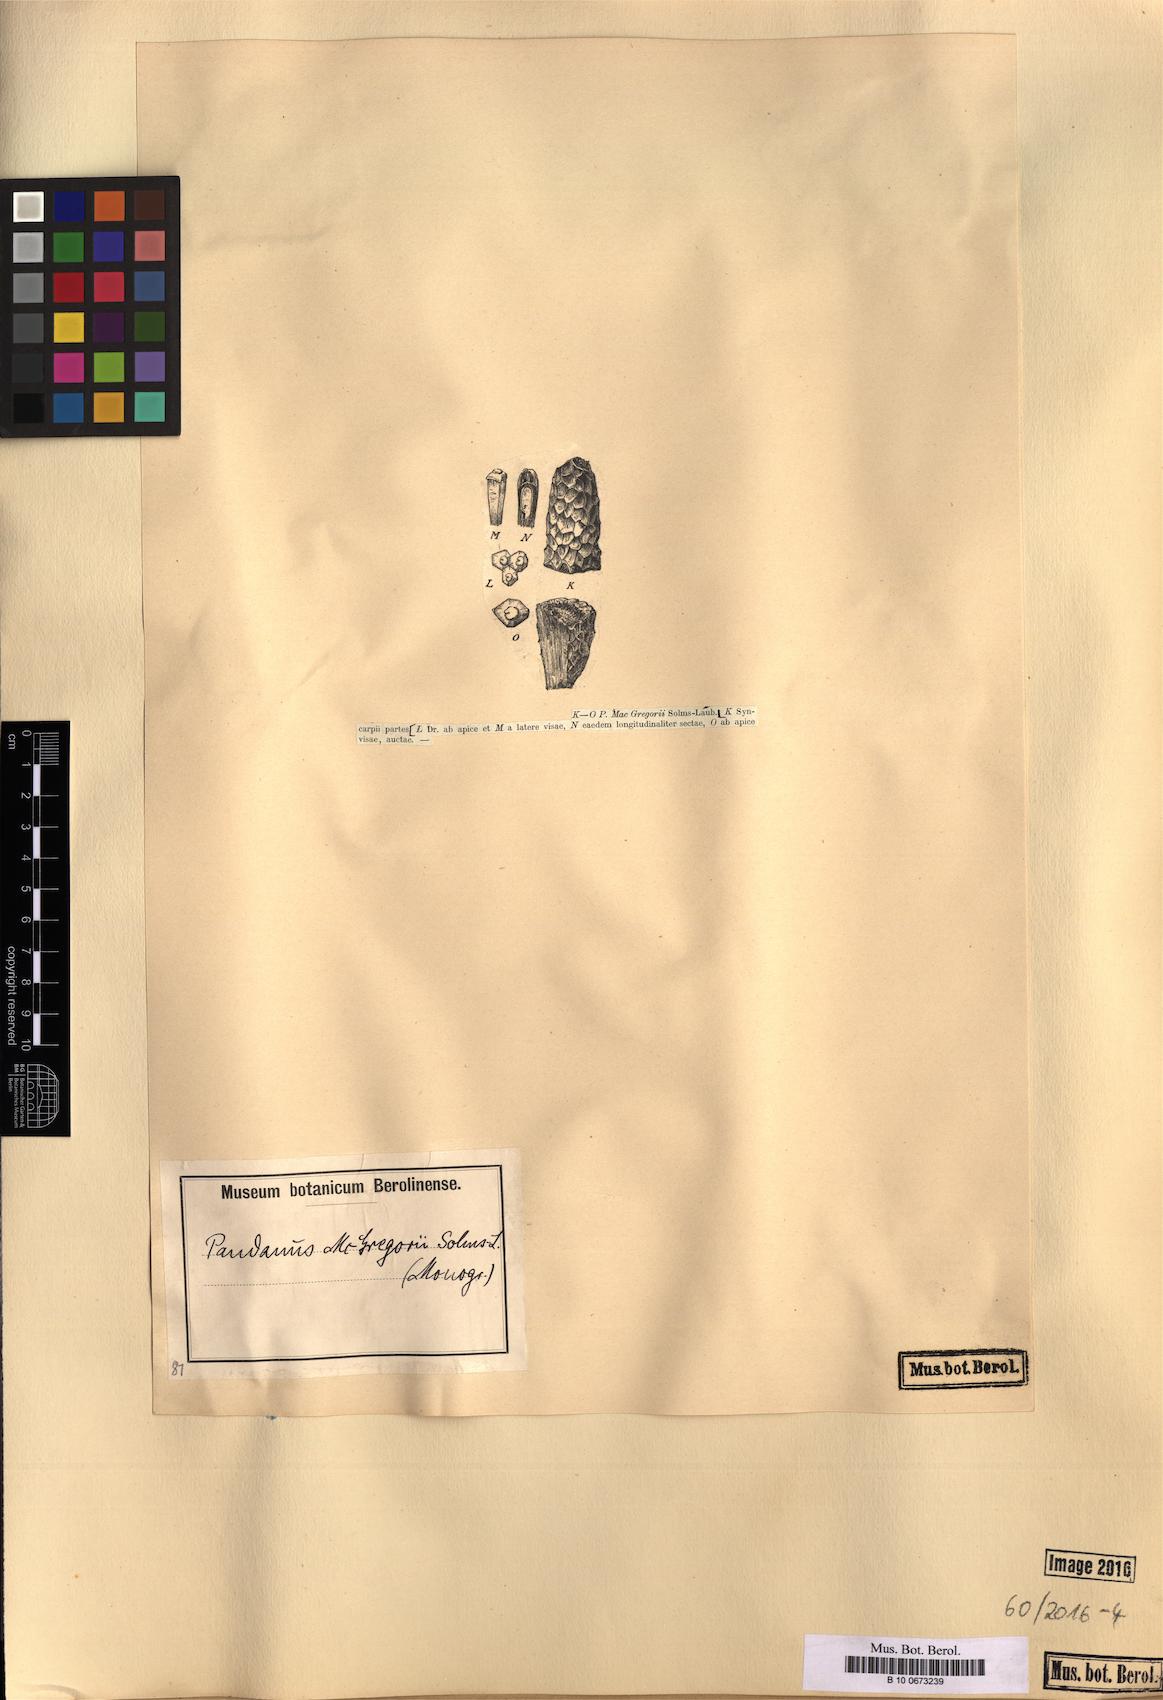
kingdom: Plantae
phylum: Tracheophyta
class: Liliopsida
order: Pandanales
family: Pandanaceae
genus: Pandanus
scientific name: Pandanus conoideus
